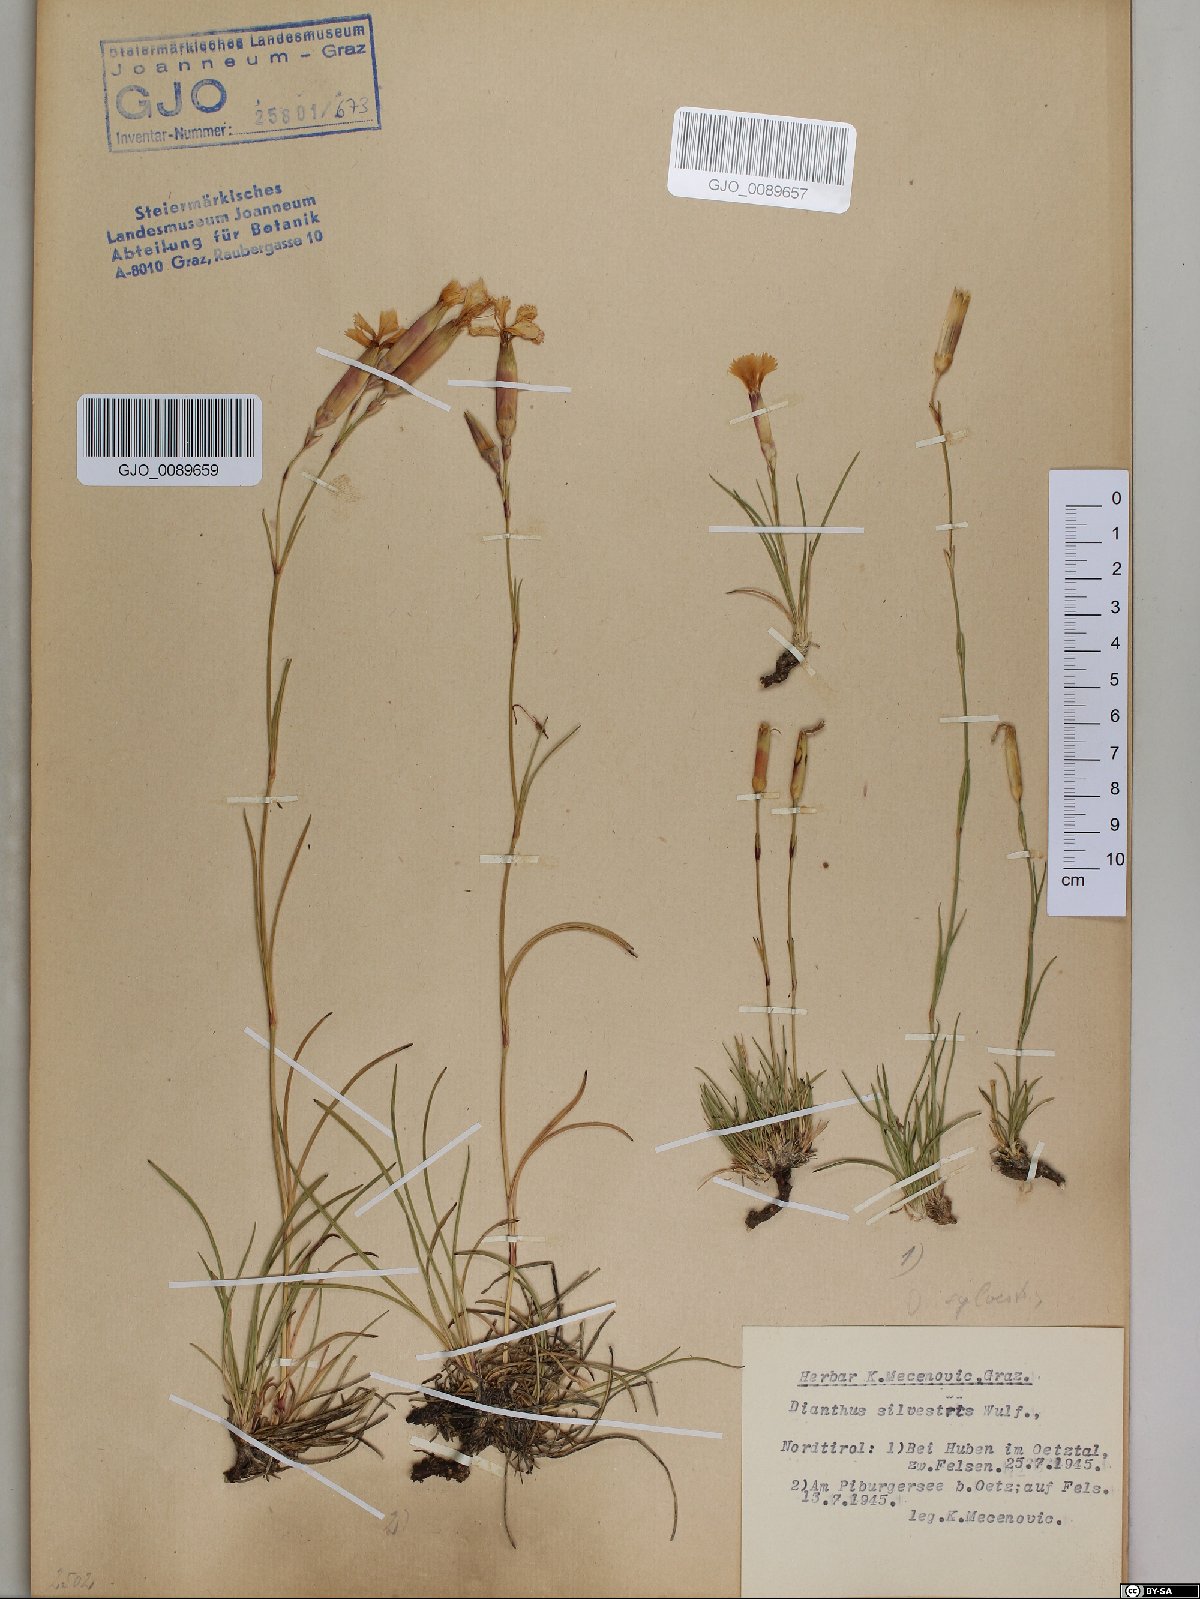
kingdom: Plantae
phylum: Tracheophyta
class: Magnoliopsida
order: Caryophyllales
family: Caryophyllaceae
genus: Dianthus
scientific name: Dianthus sylvestris
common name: Wood pink
